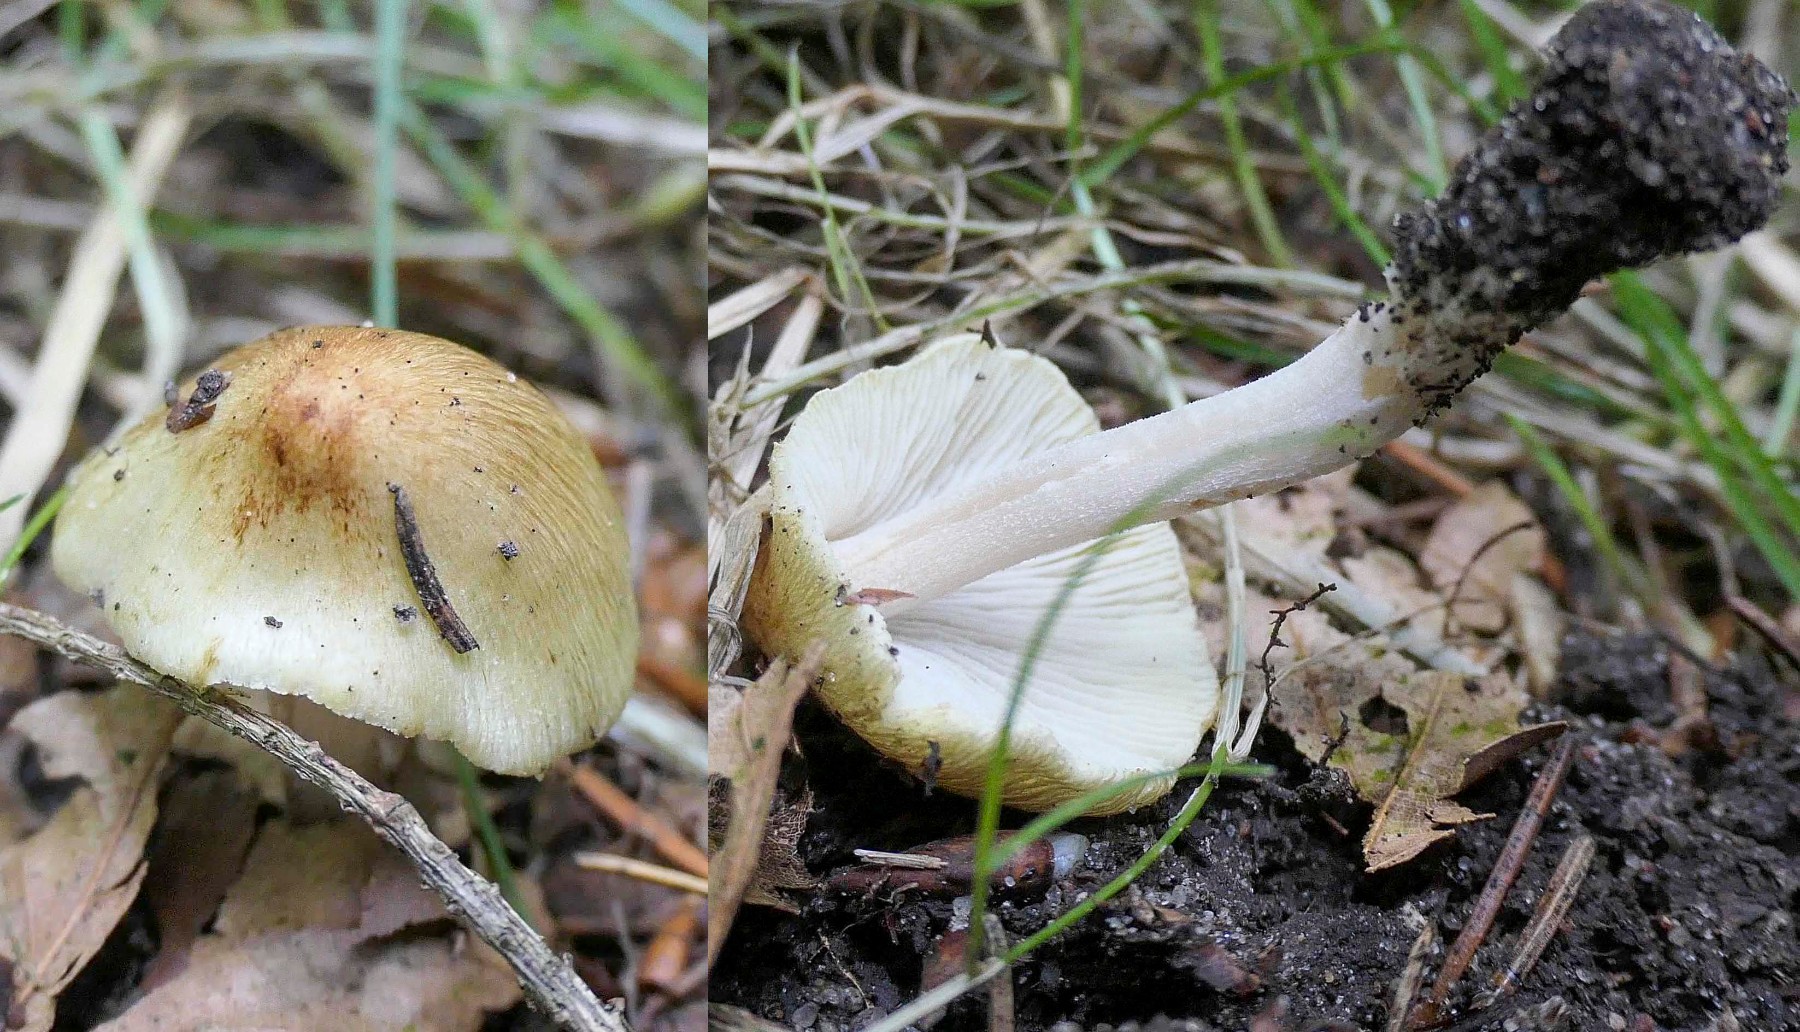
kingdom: Fungi
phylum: Basidiomycota
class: Agaricomycetes
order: Agaricales
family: Inocybaceae
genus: Pseudosperma
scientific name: Pseudosperma
